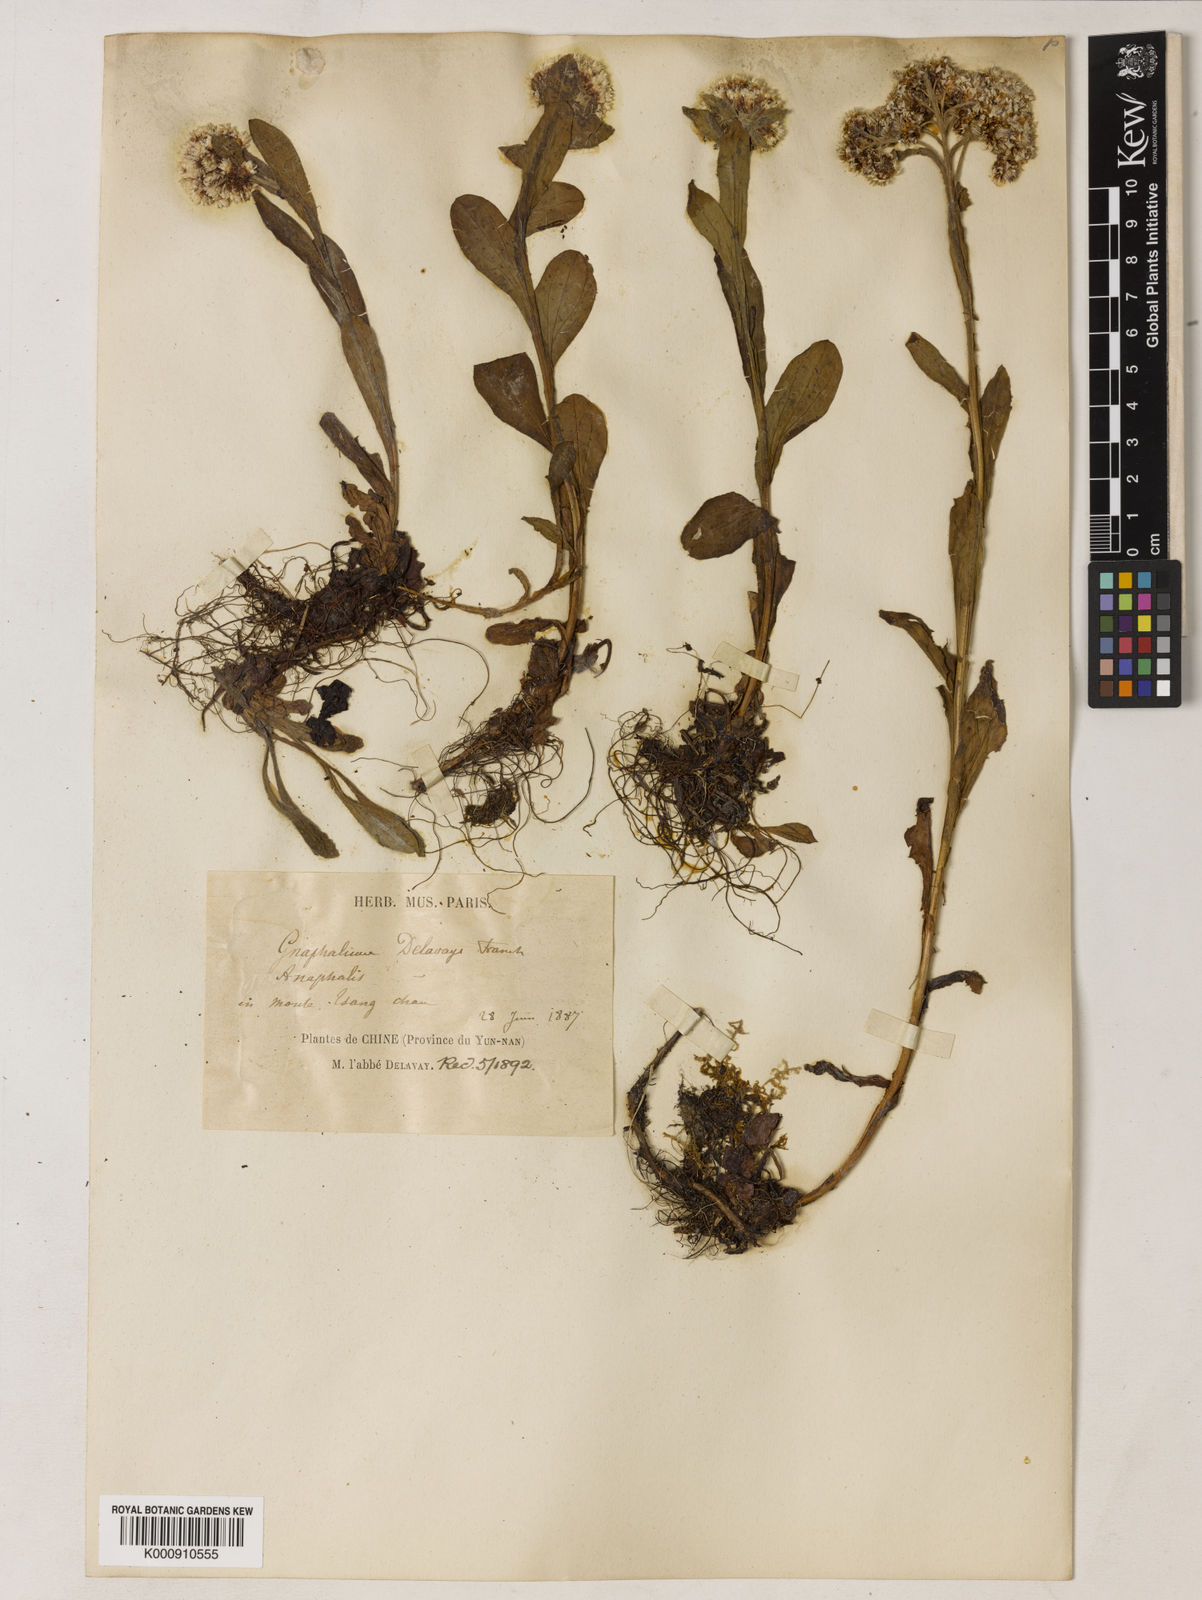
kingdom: Plantae
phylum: Tracheophyta
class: Magnoliopsida
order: Asterales
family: Asteraceae
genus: Anaphalis
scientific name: Anaphalis delavayi
